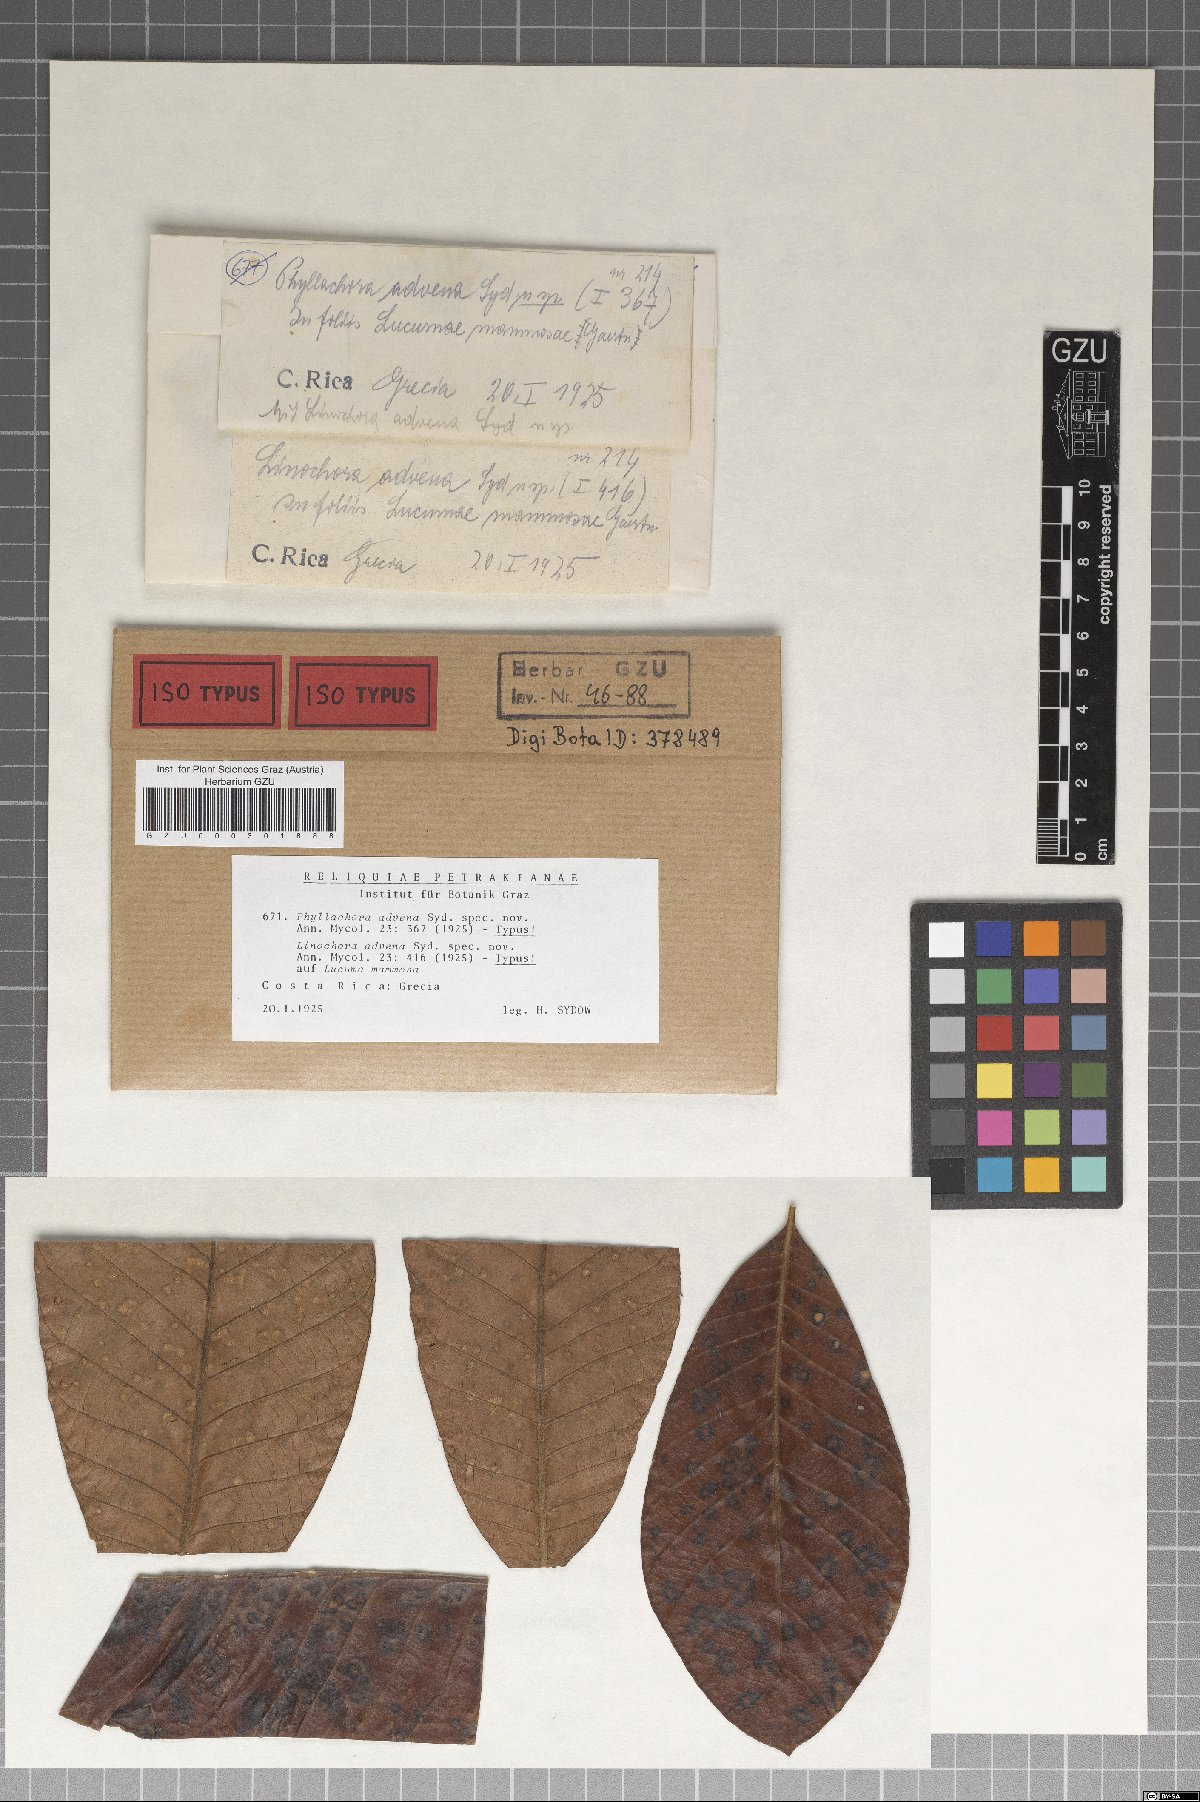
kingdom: Fungi
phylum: Ascomycota
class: Sordariomycetes
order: Phyllachorales
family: Phyllachoraceae
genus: Phyllachora
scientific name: Phyllachora advena
